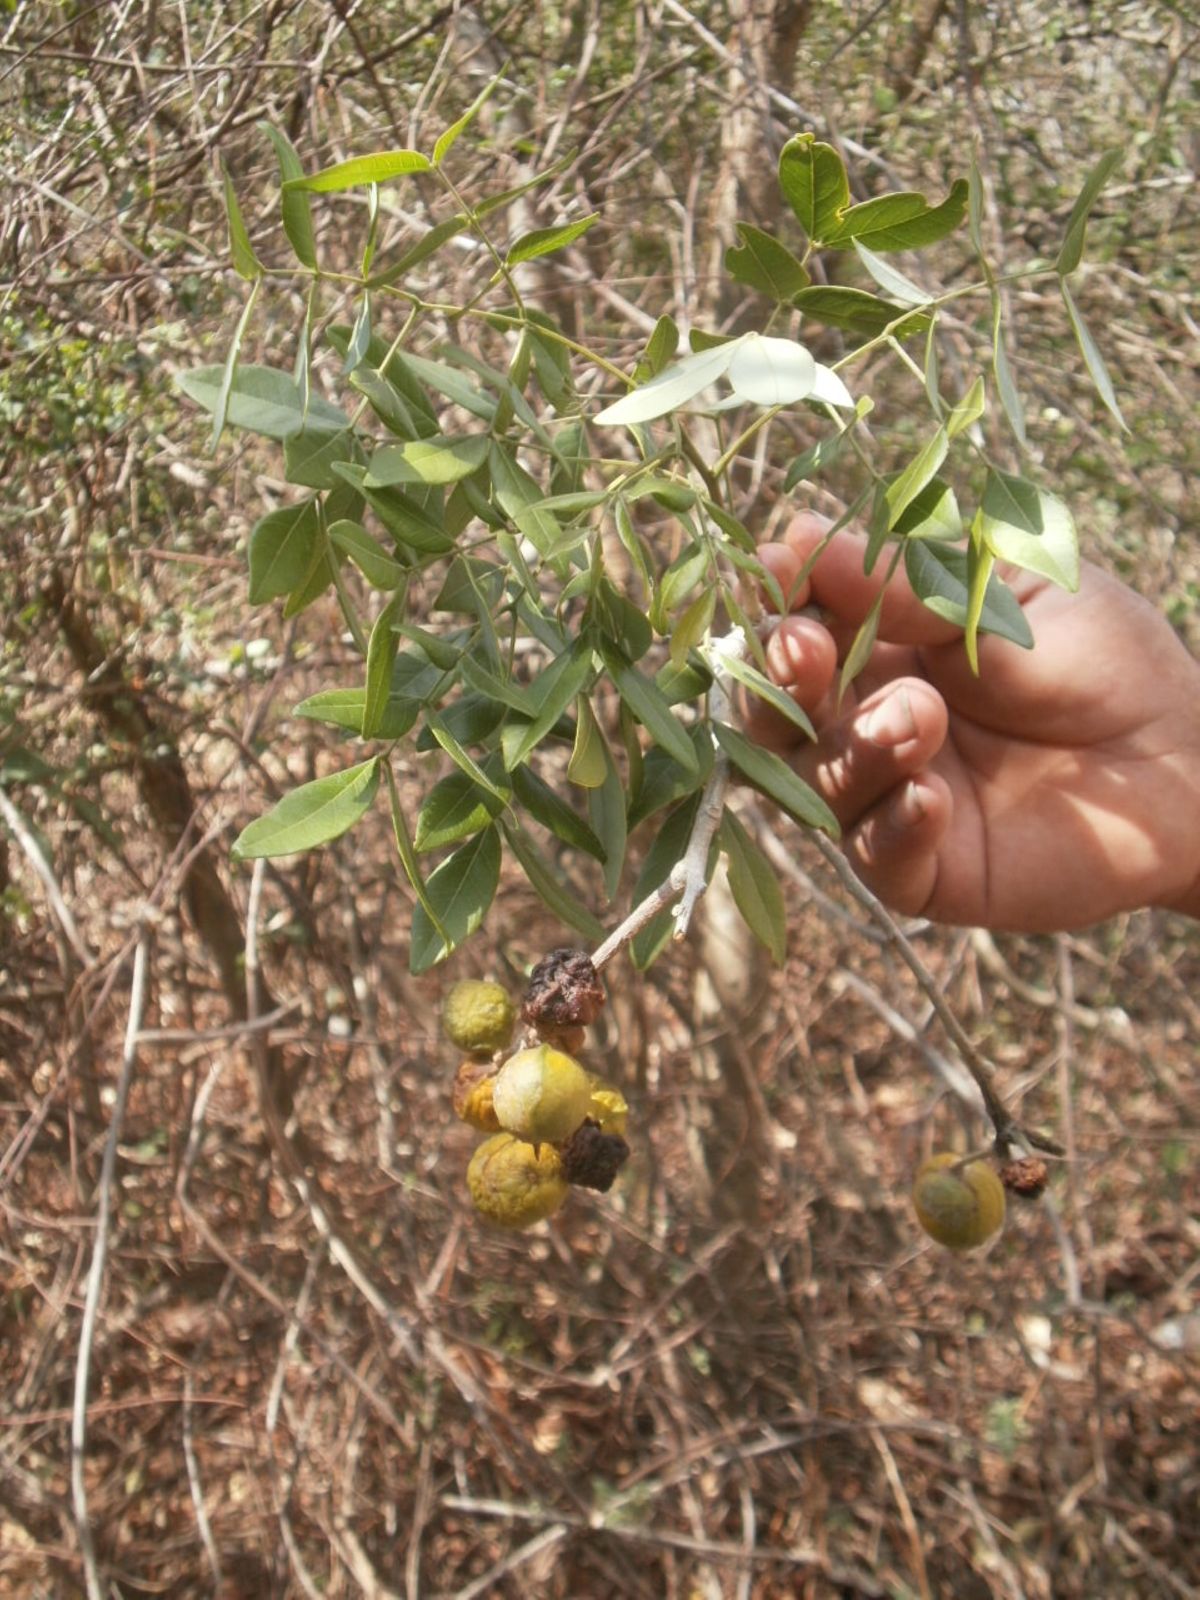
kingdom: Plantae
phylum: Tracheophyta
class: Magnoliopsida
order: Fabales
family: Fabaceae
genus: Albizia
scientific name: Albizia adinocephala
